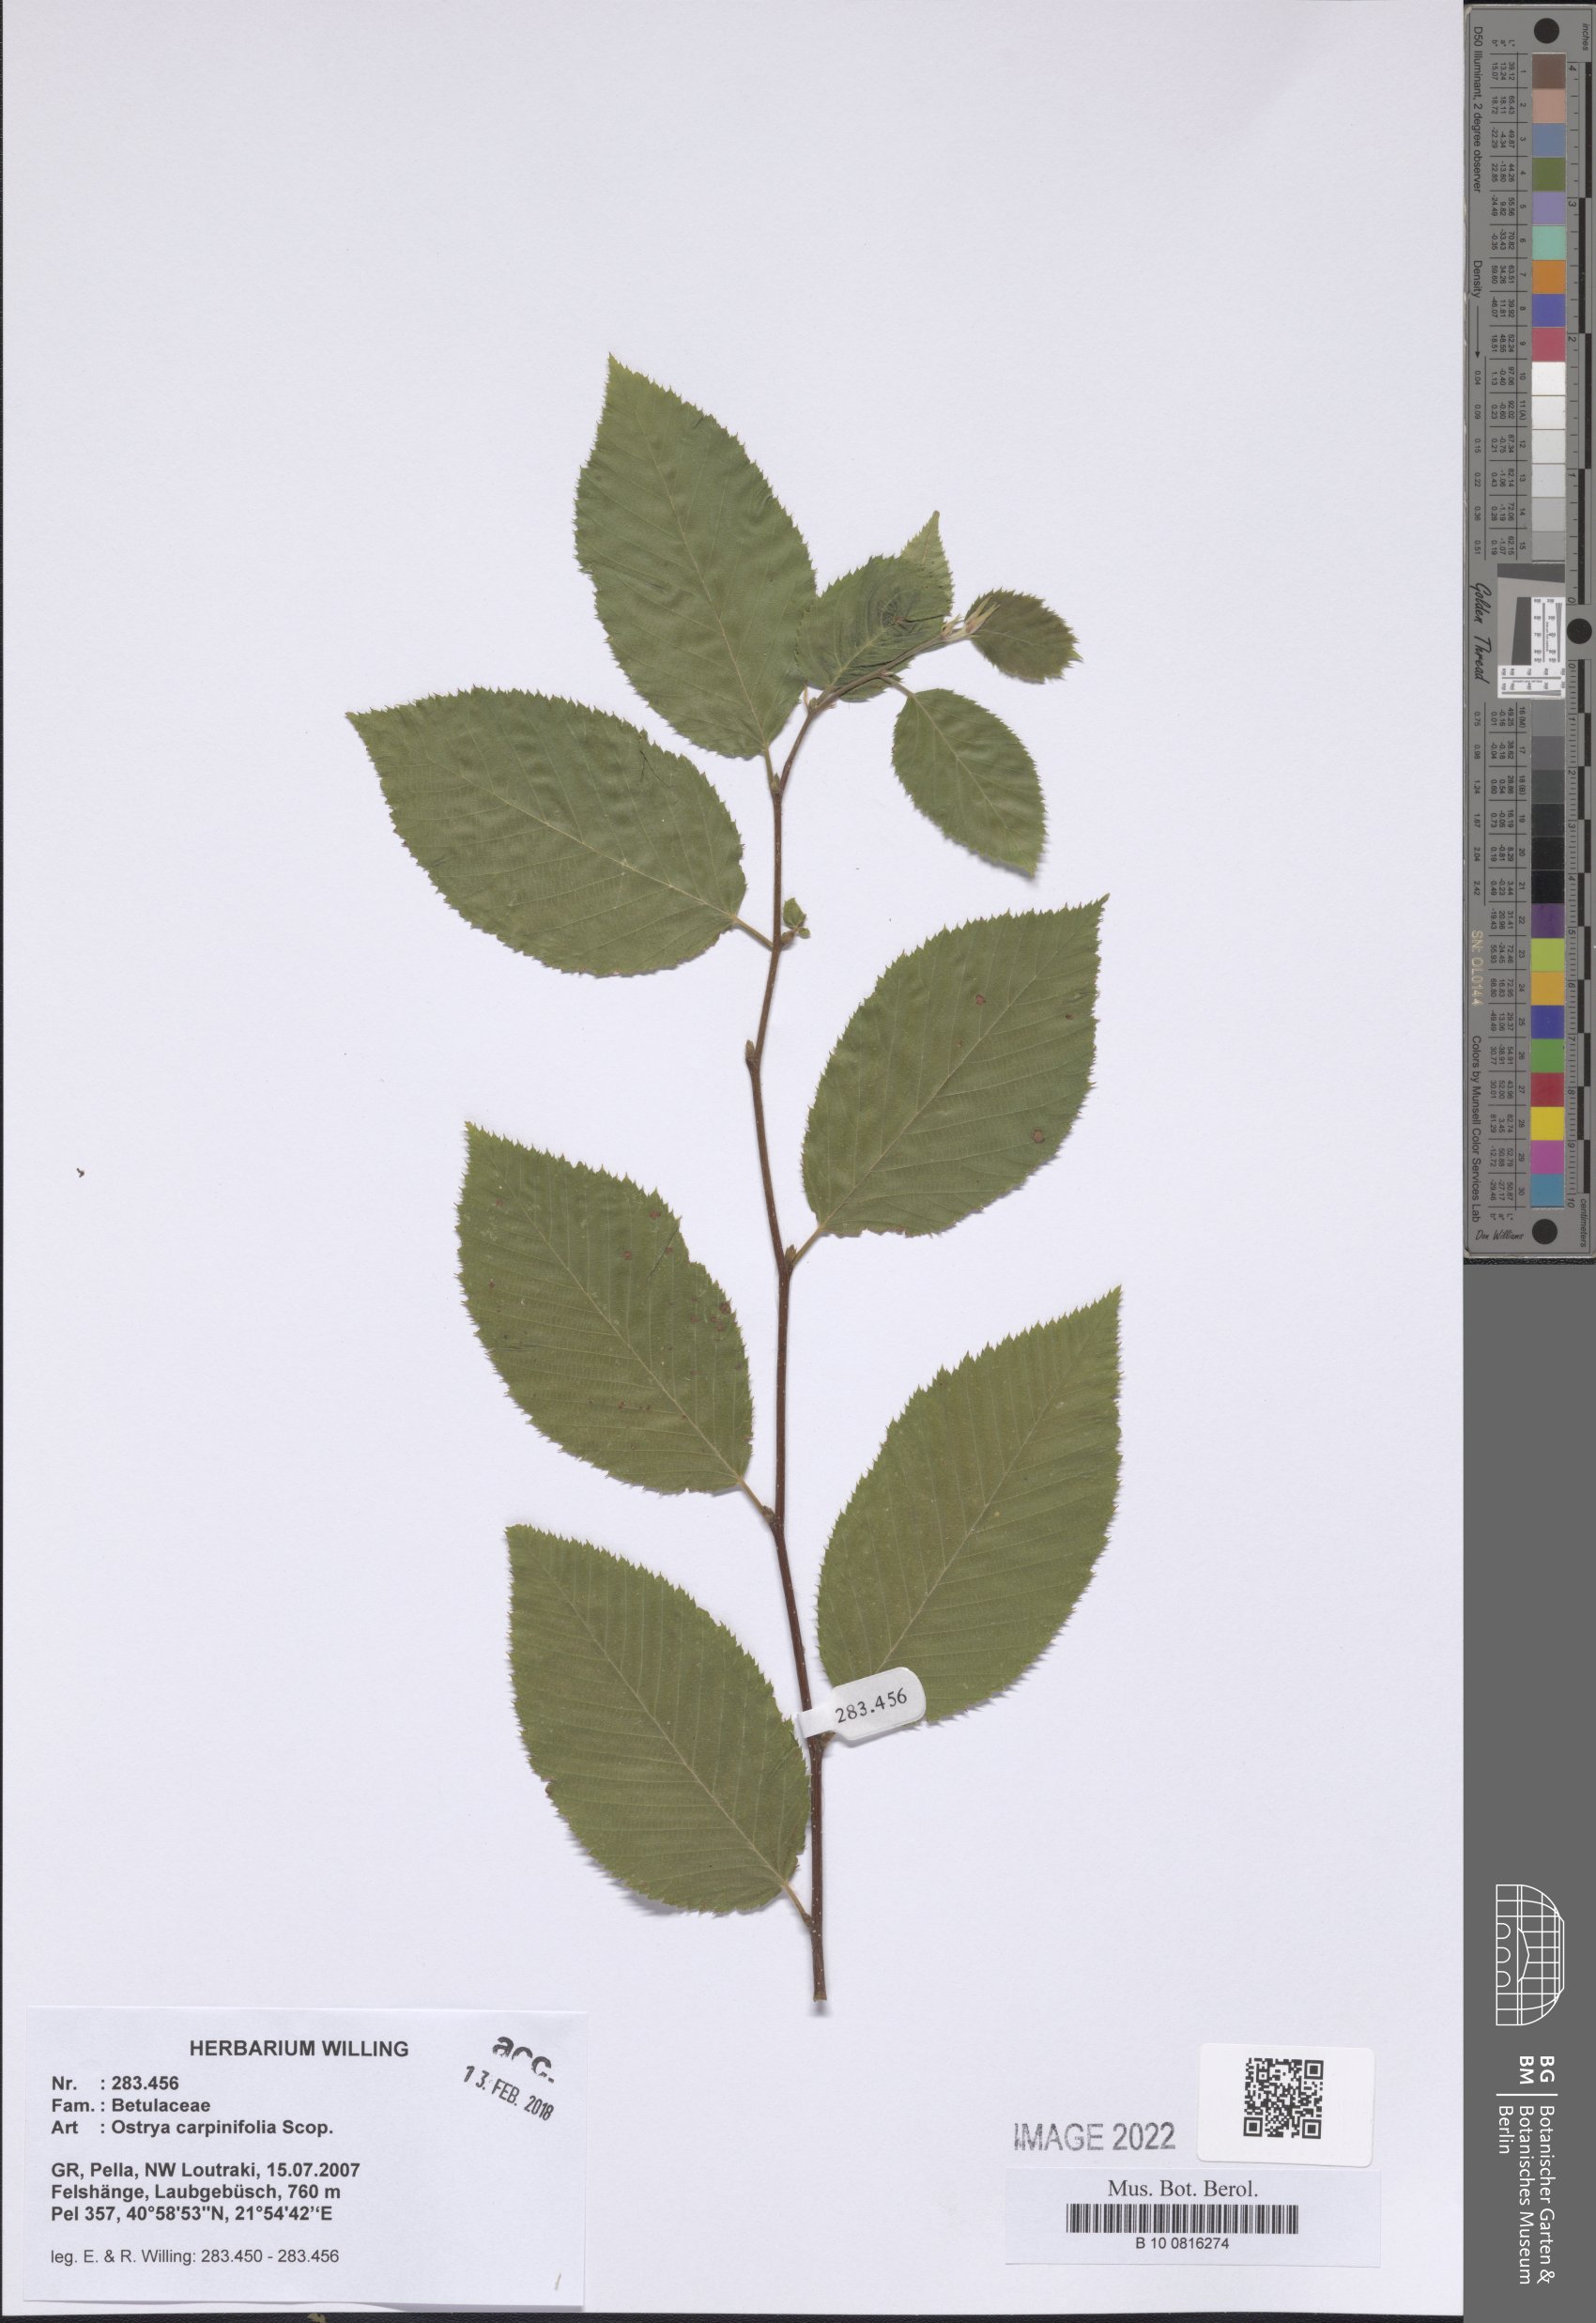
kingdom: Plantae
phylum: Tracheophyta
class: Magnoliopsida
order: Fagales
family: Betulaceae
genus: Carpinus
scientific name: Carpinus orientalis
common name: Eastern hornbeam
